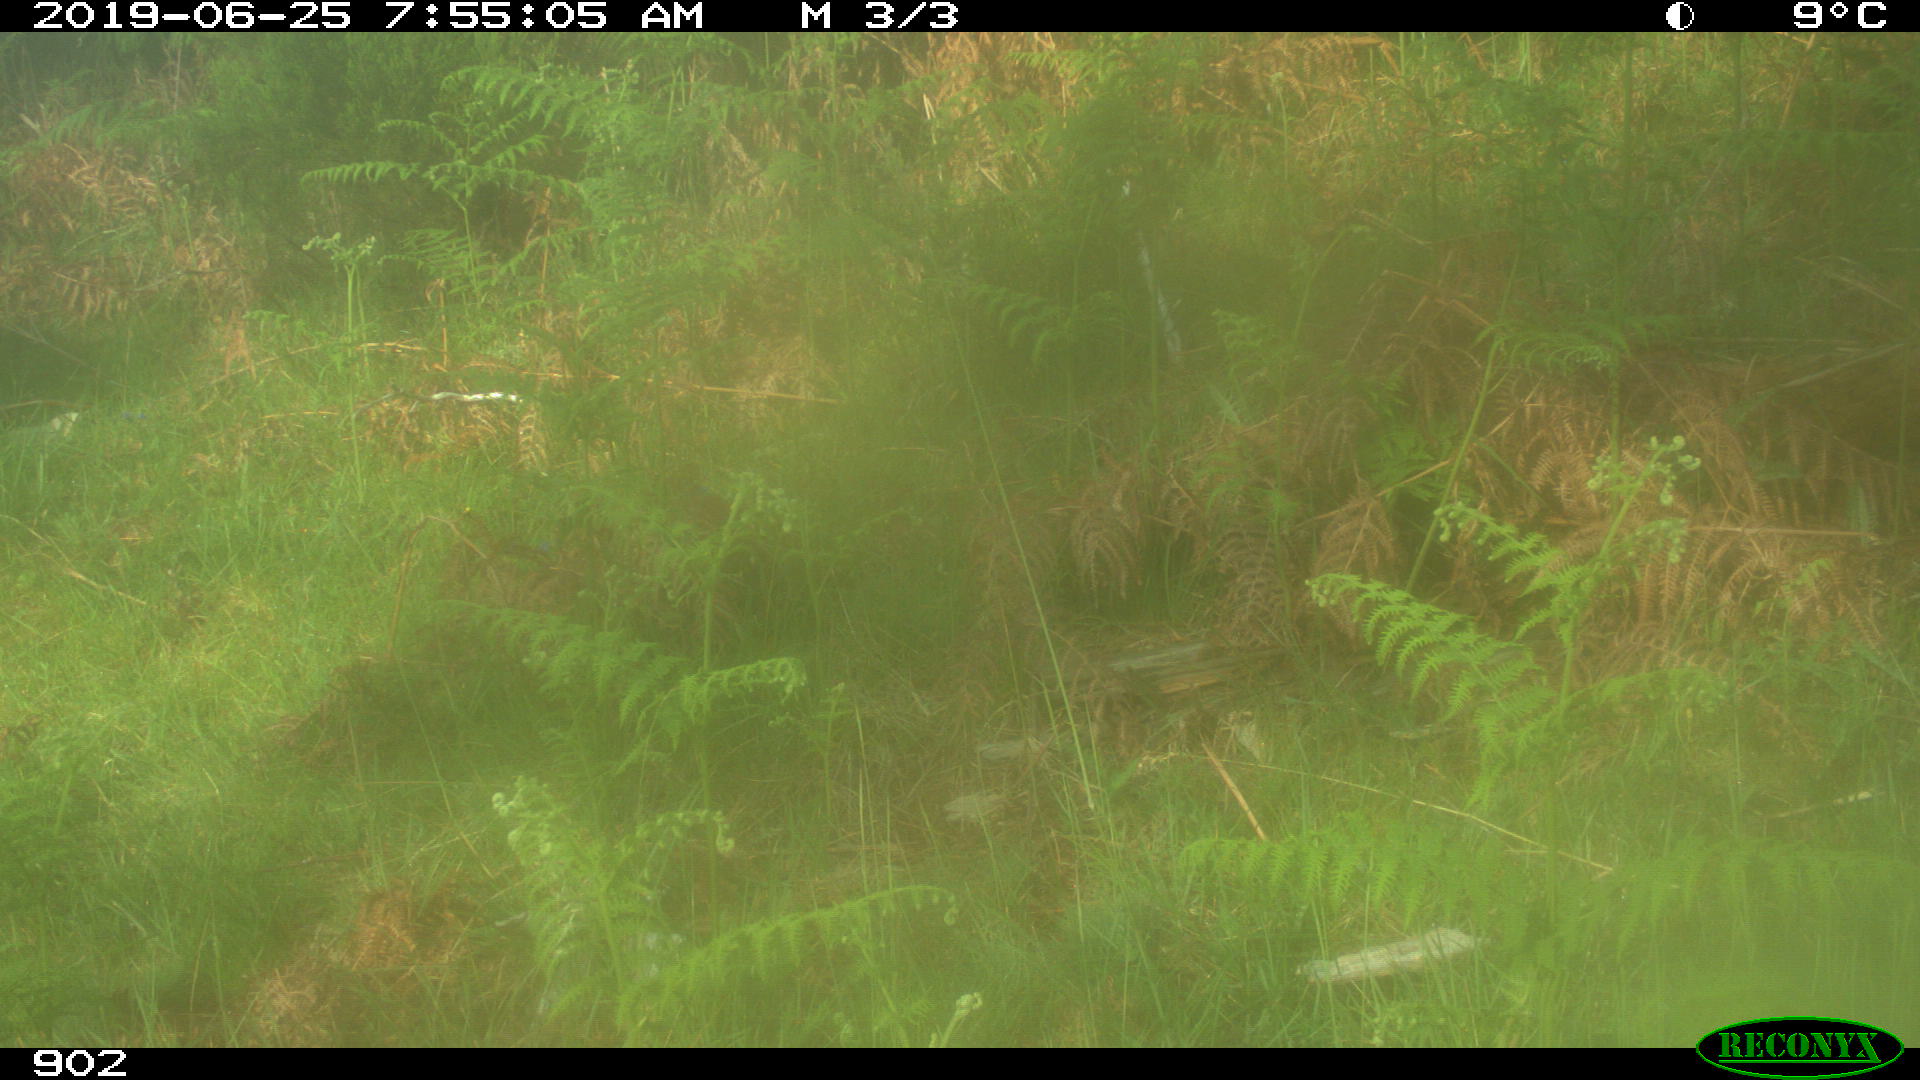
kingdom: Animalia
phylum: Chordata
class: Mammalia
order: Artiodactyla
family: Suidae
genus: Sus
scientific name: Sus scrofa
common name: Wild boar
